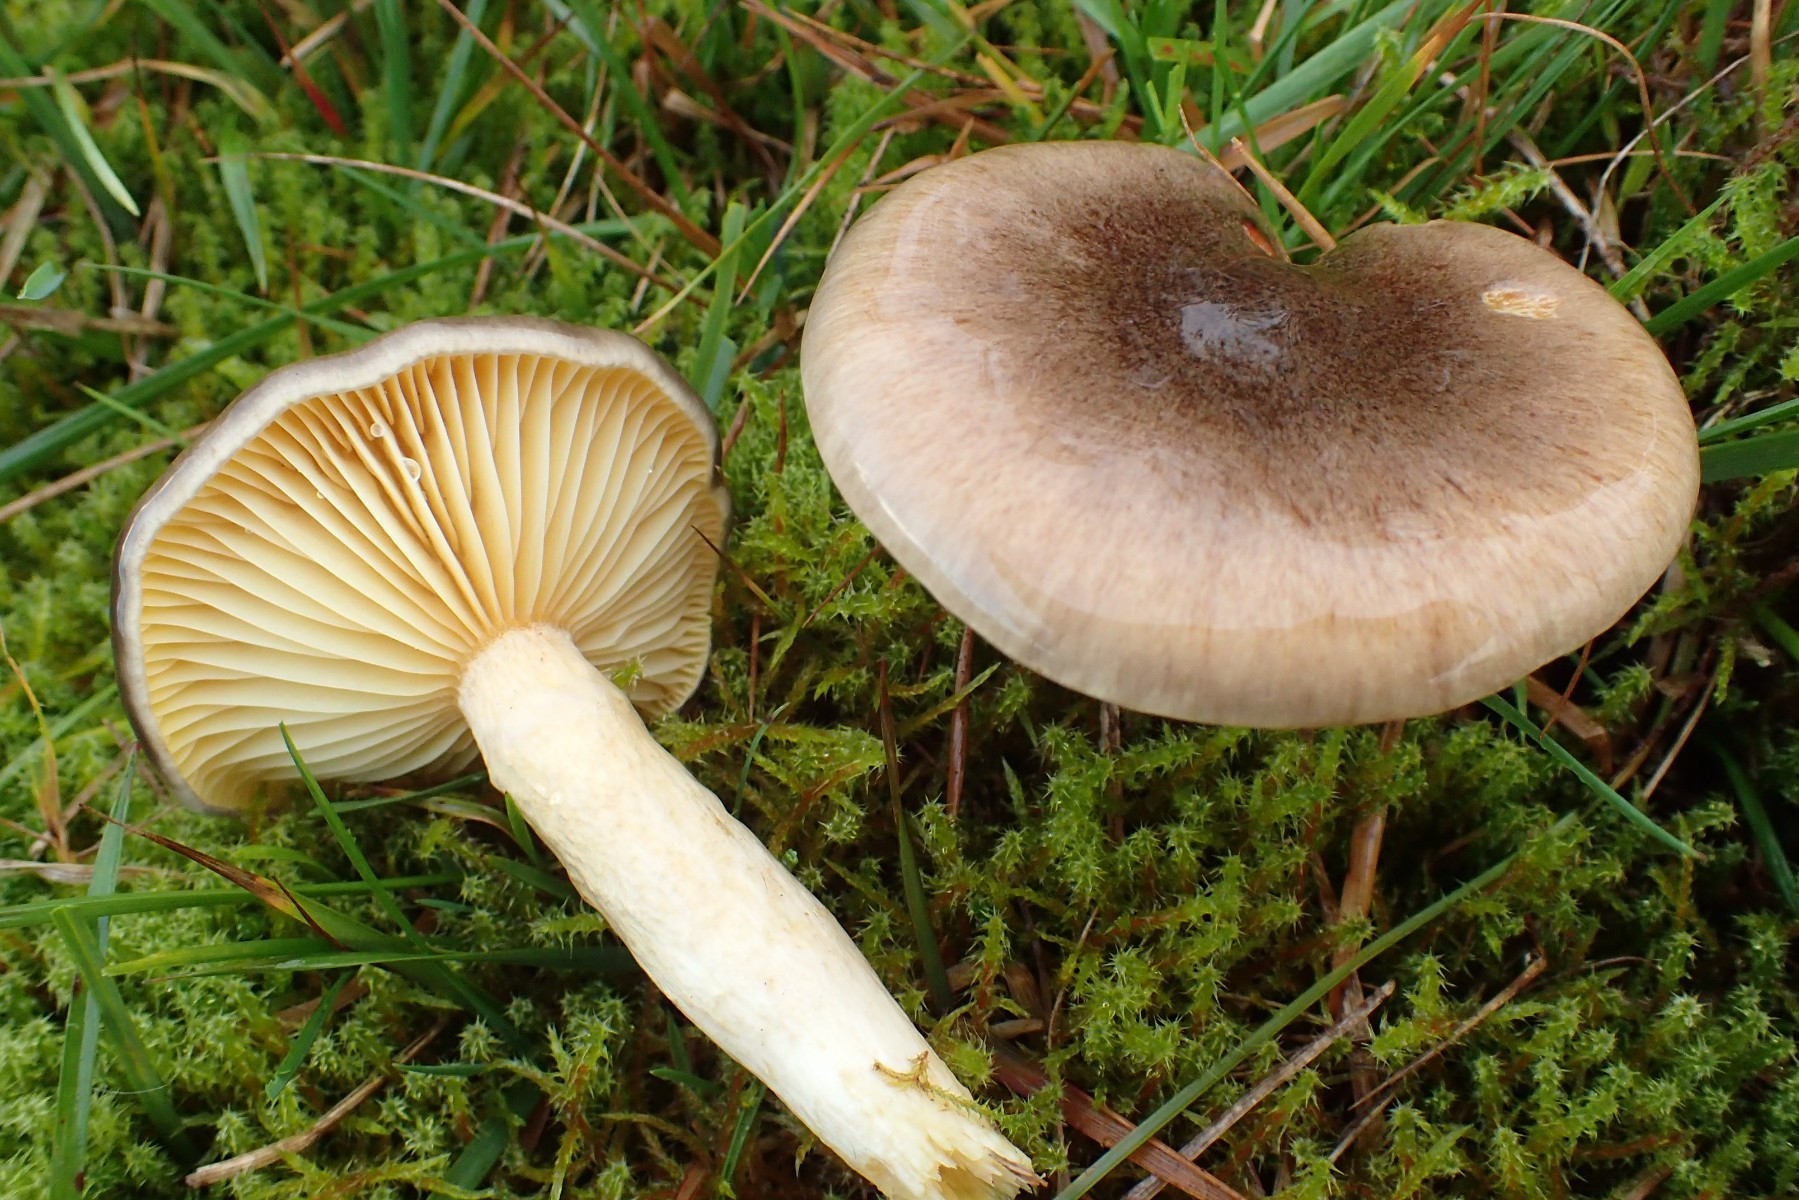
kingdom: Fungi
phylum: Basidiomycota
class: Agaricomycetes
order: Agaricales
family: Hygrophoraceae
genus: Hygrophorus
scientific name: Hygrophorus hypothejus
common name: frost-sneglehat
